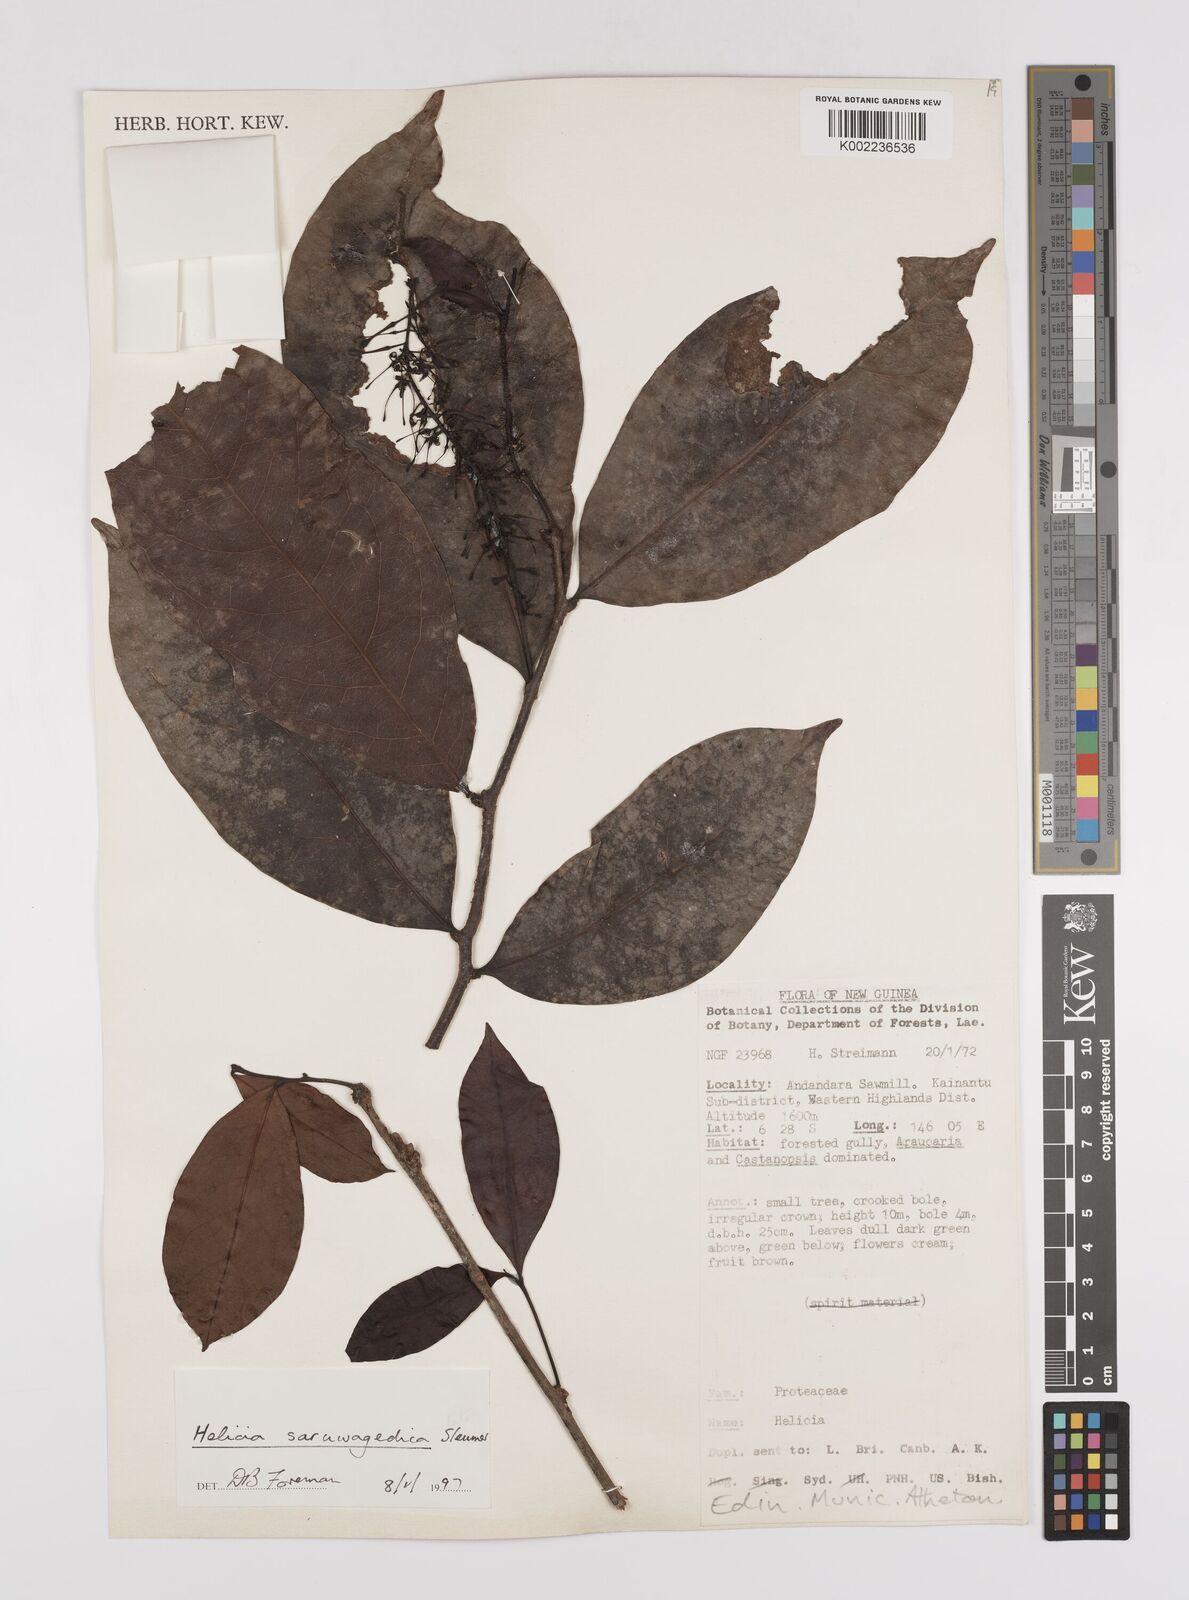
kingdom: Plantae
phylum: Tracheophyta
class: Magnoliopsida
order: Proteales
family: Proteaceae
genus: Helicia
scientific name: Helicia saruwagedica
